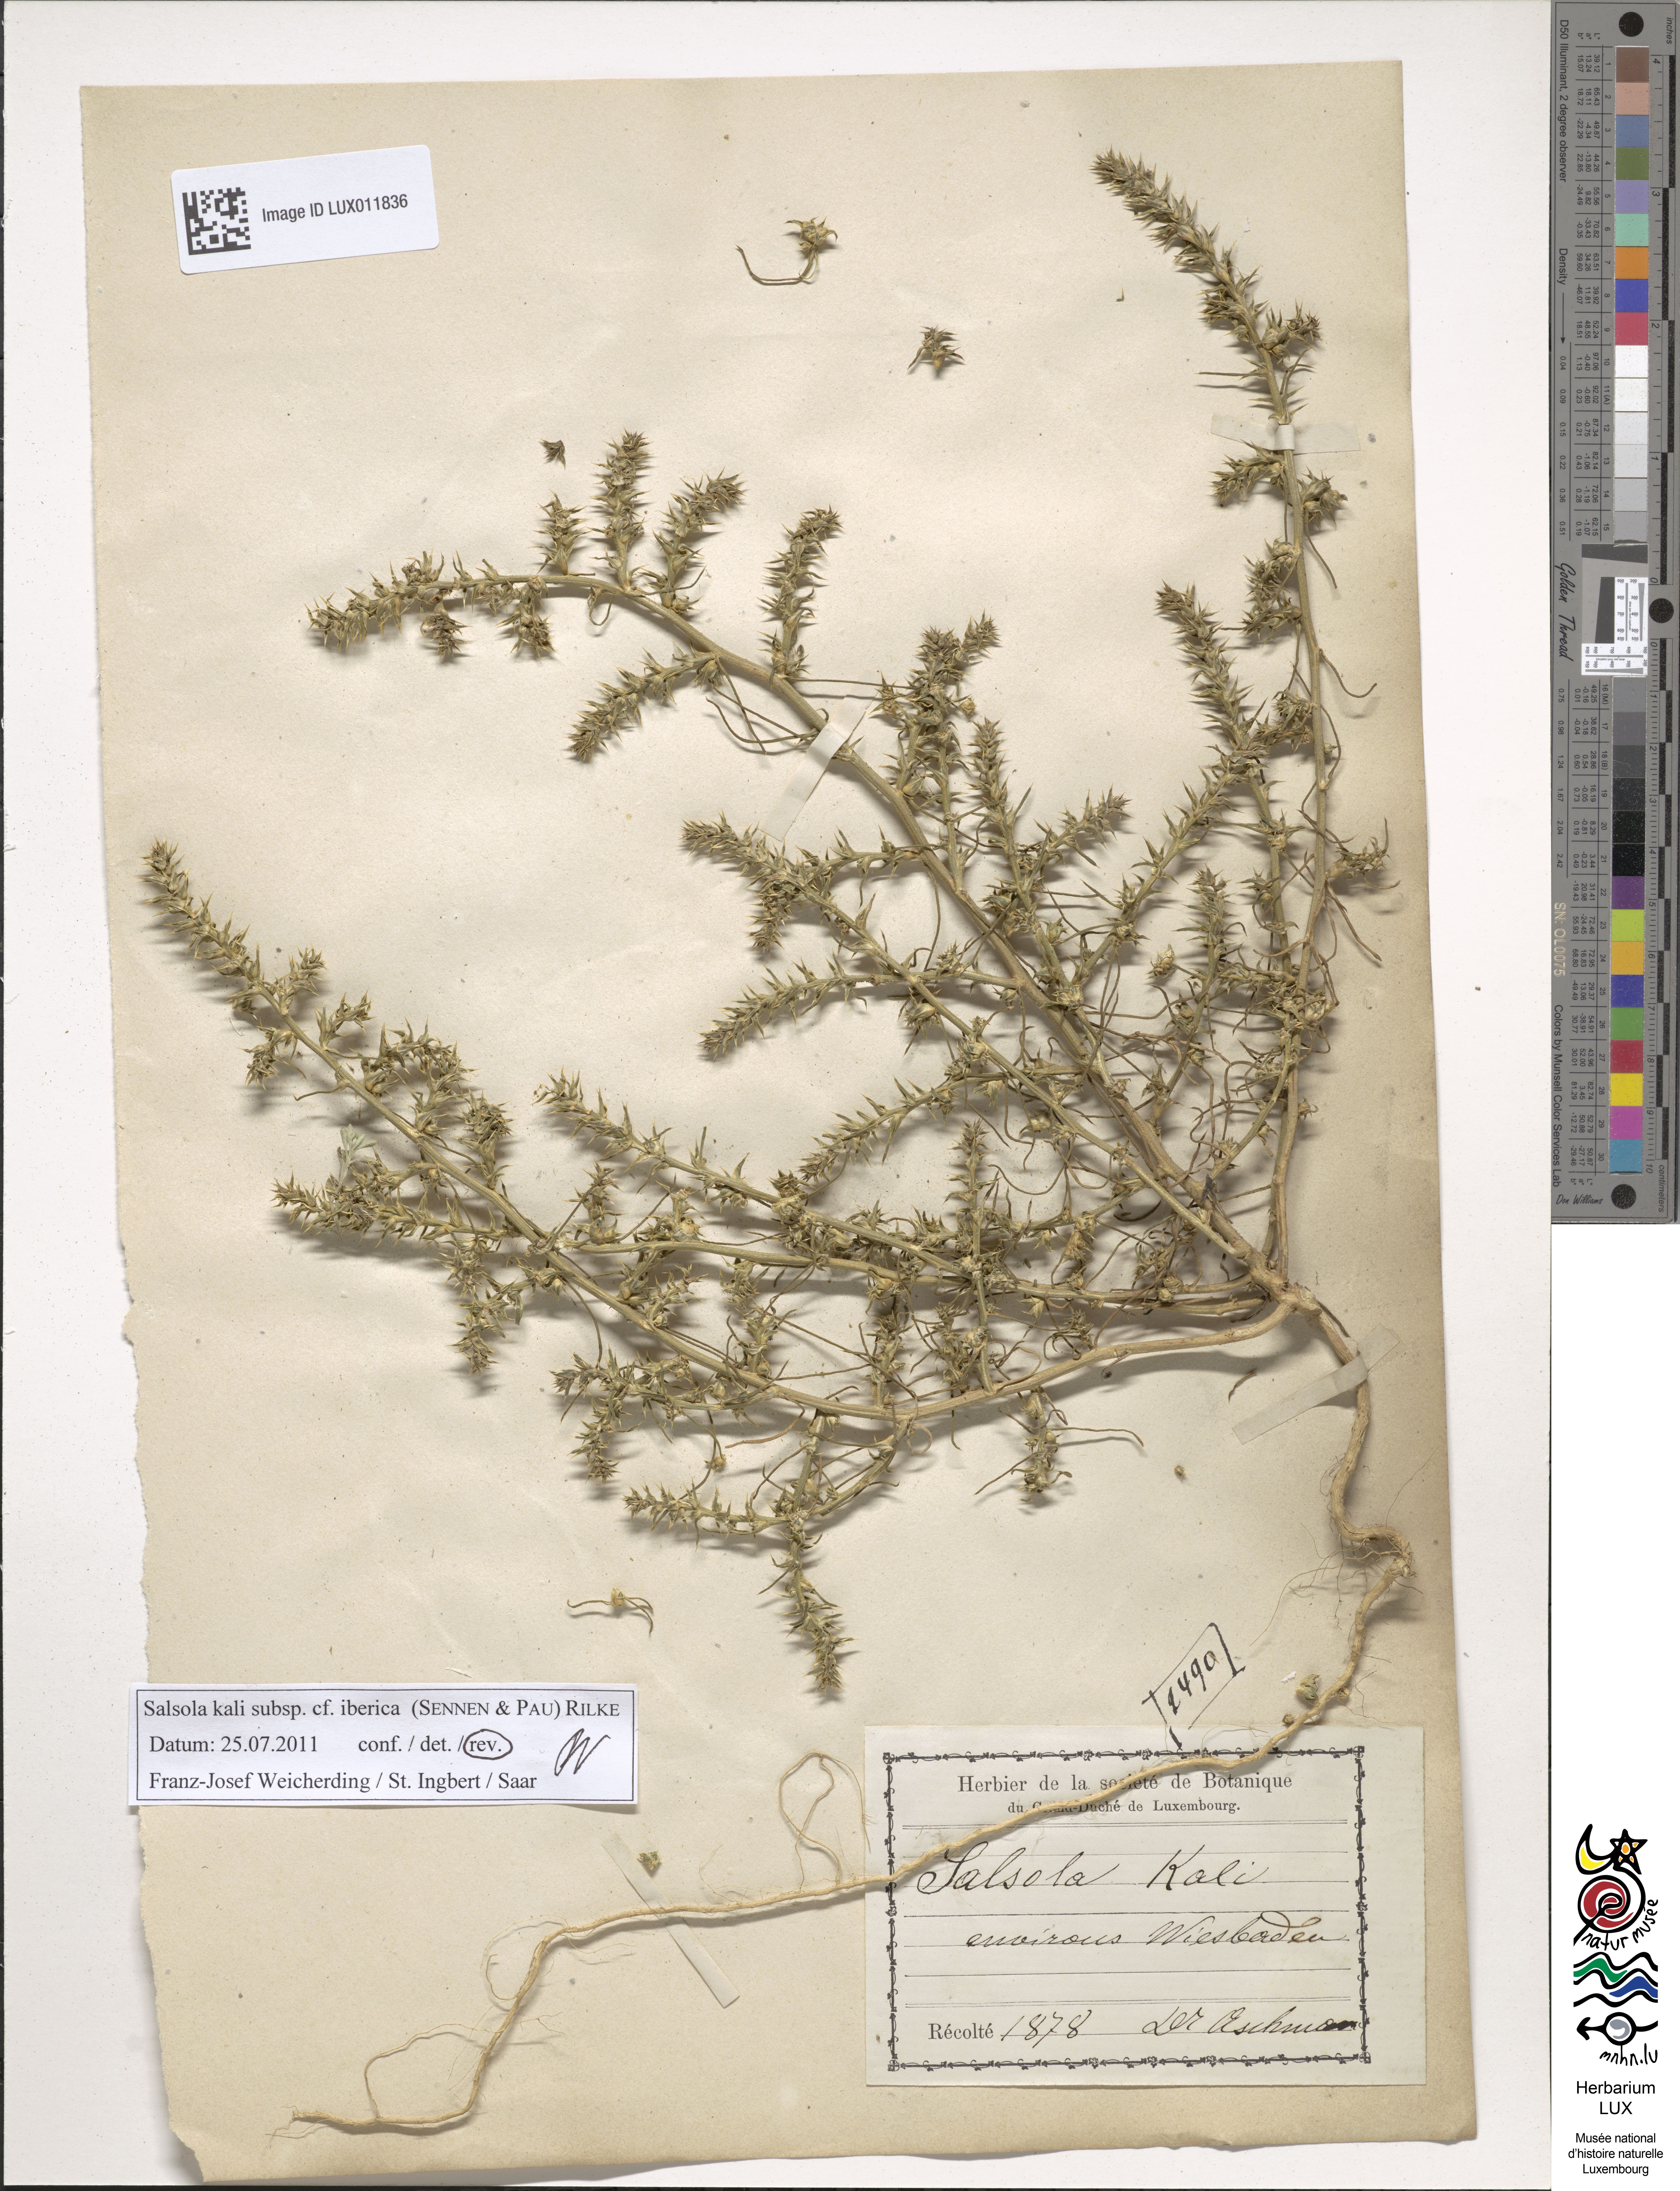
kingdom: Plantae
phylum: Tracheophyta
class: Magnoliopsida
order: Caryophyllales
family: Amaranthaceae
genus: Salsola
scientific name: Salsola tragus
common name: Prickly russian thistle
